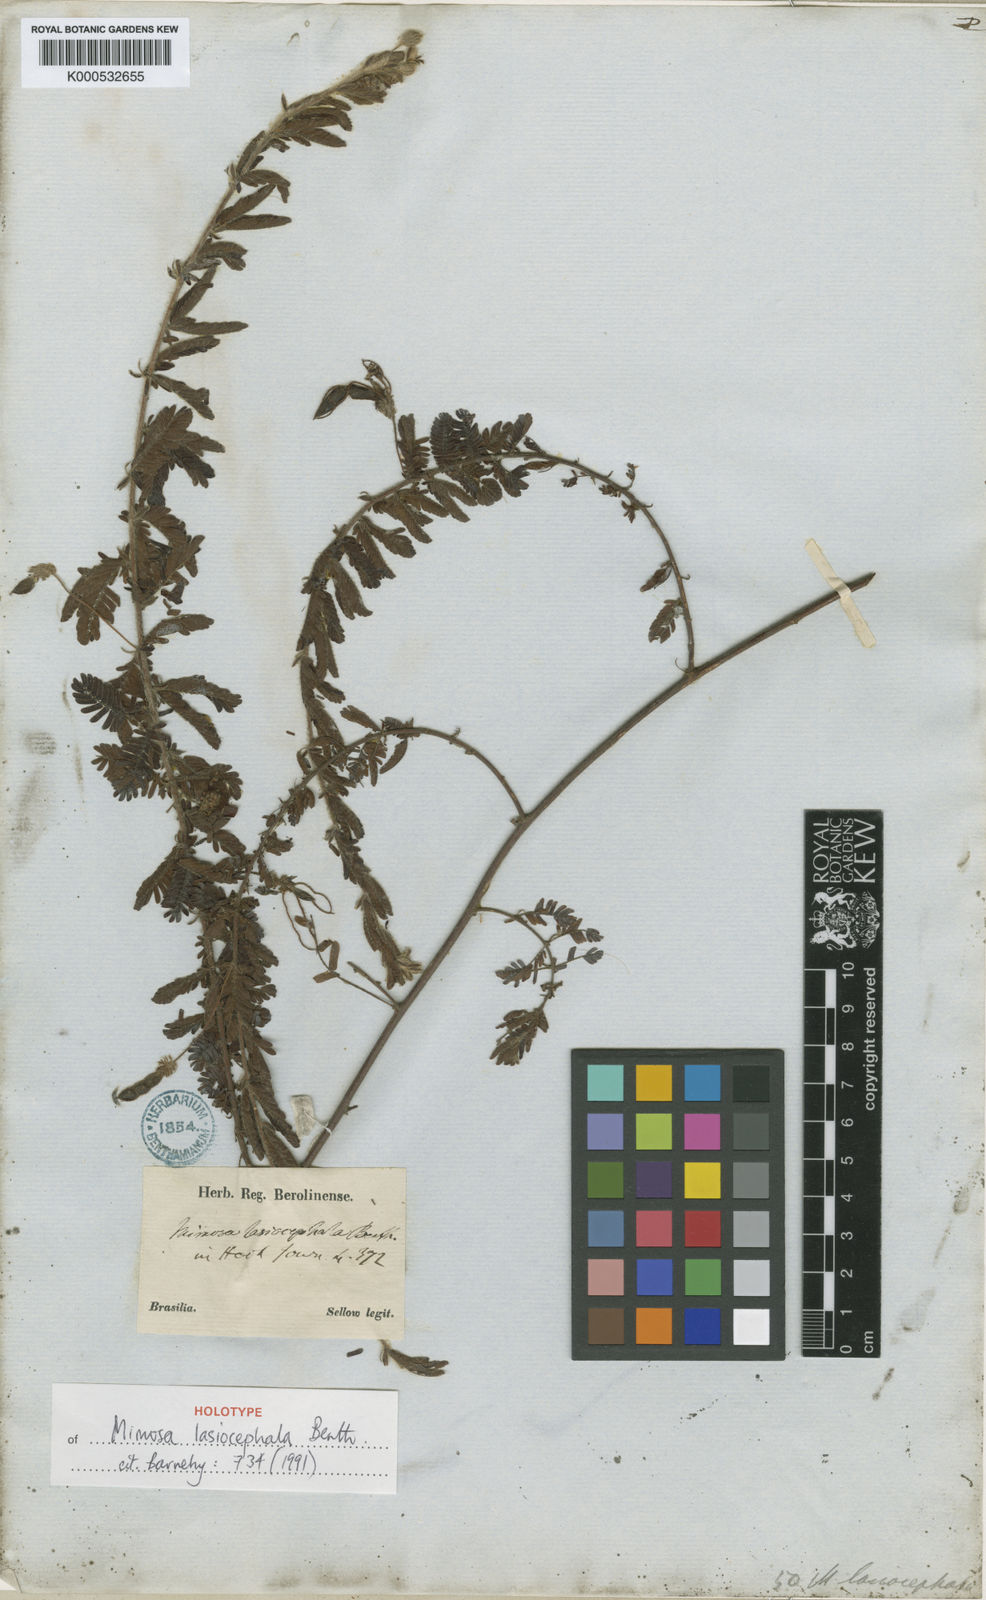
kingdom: Plantae
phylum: Tracheophyta
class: Magnoliopsida
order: Fabales
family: Fabaceae
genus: Mimosa
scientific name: Mimosa lasiocephala
